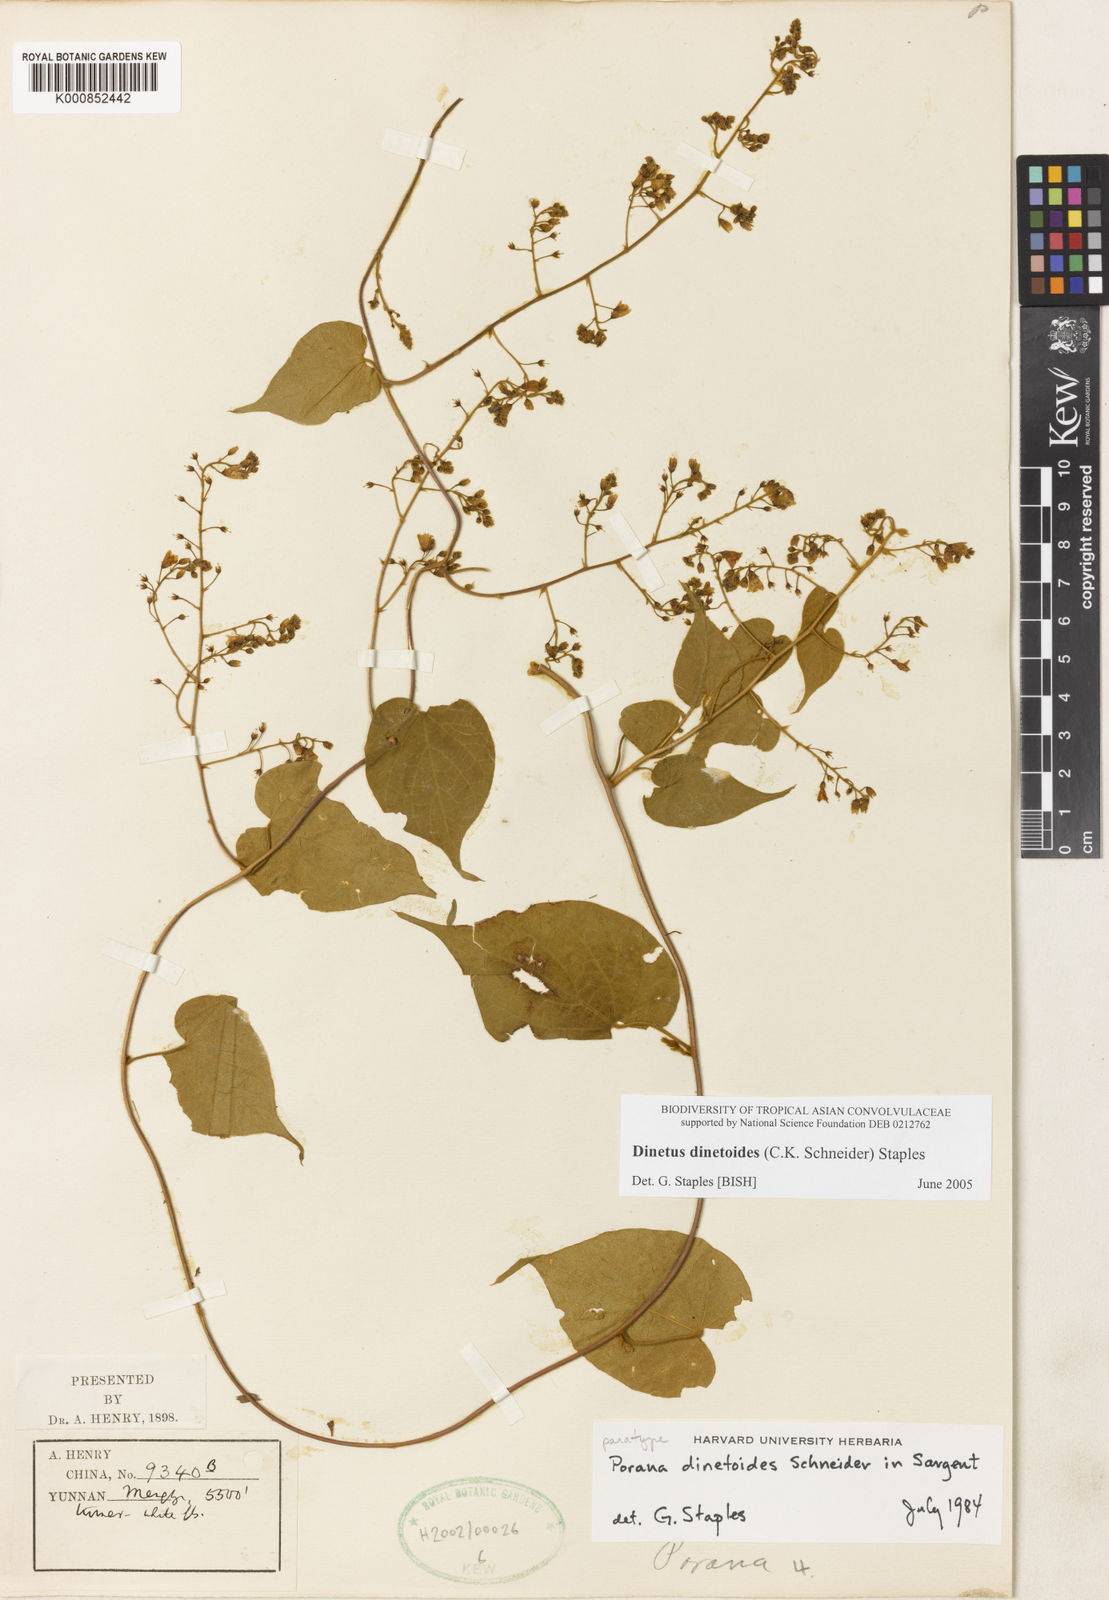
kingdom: Plantae
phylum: Tracheophyta
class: Magnoliopsida
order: Solanales
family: Convolvulaceae
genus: Dinetus
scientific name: Dinetus dinetoides
